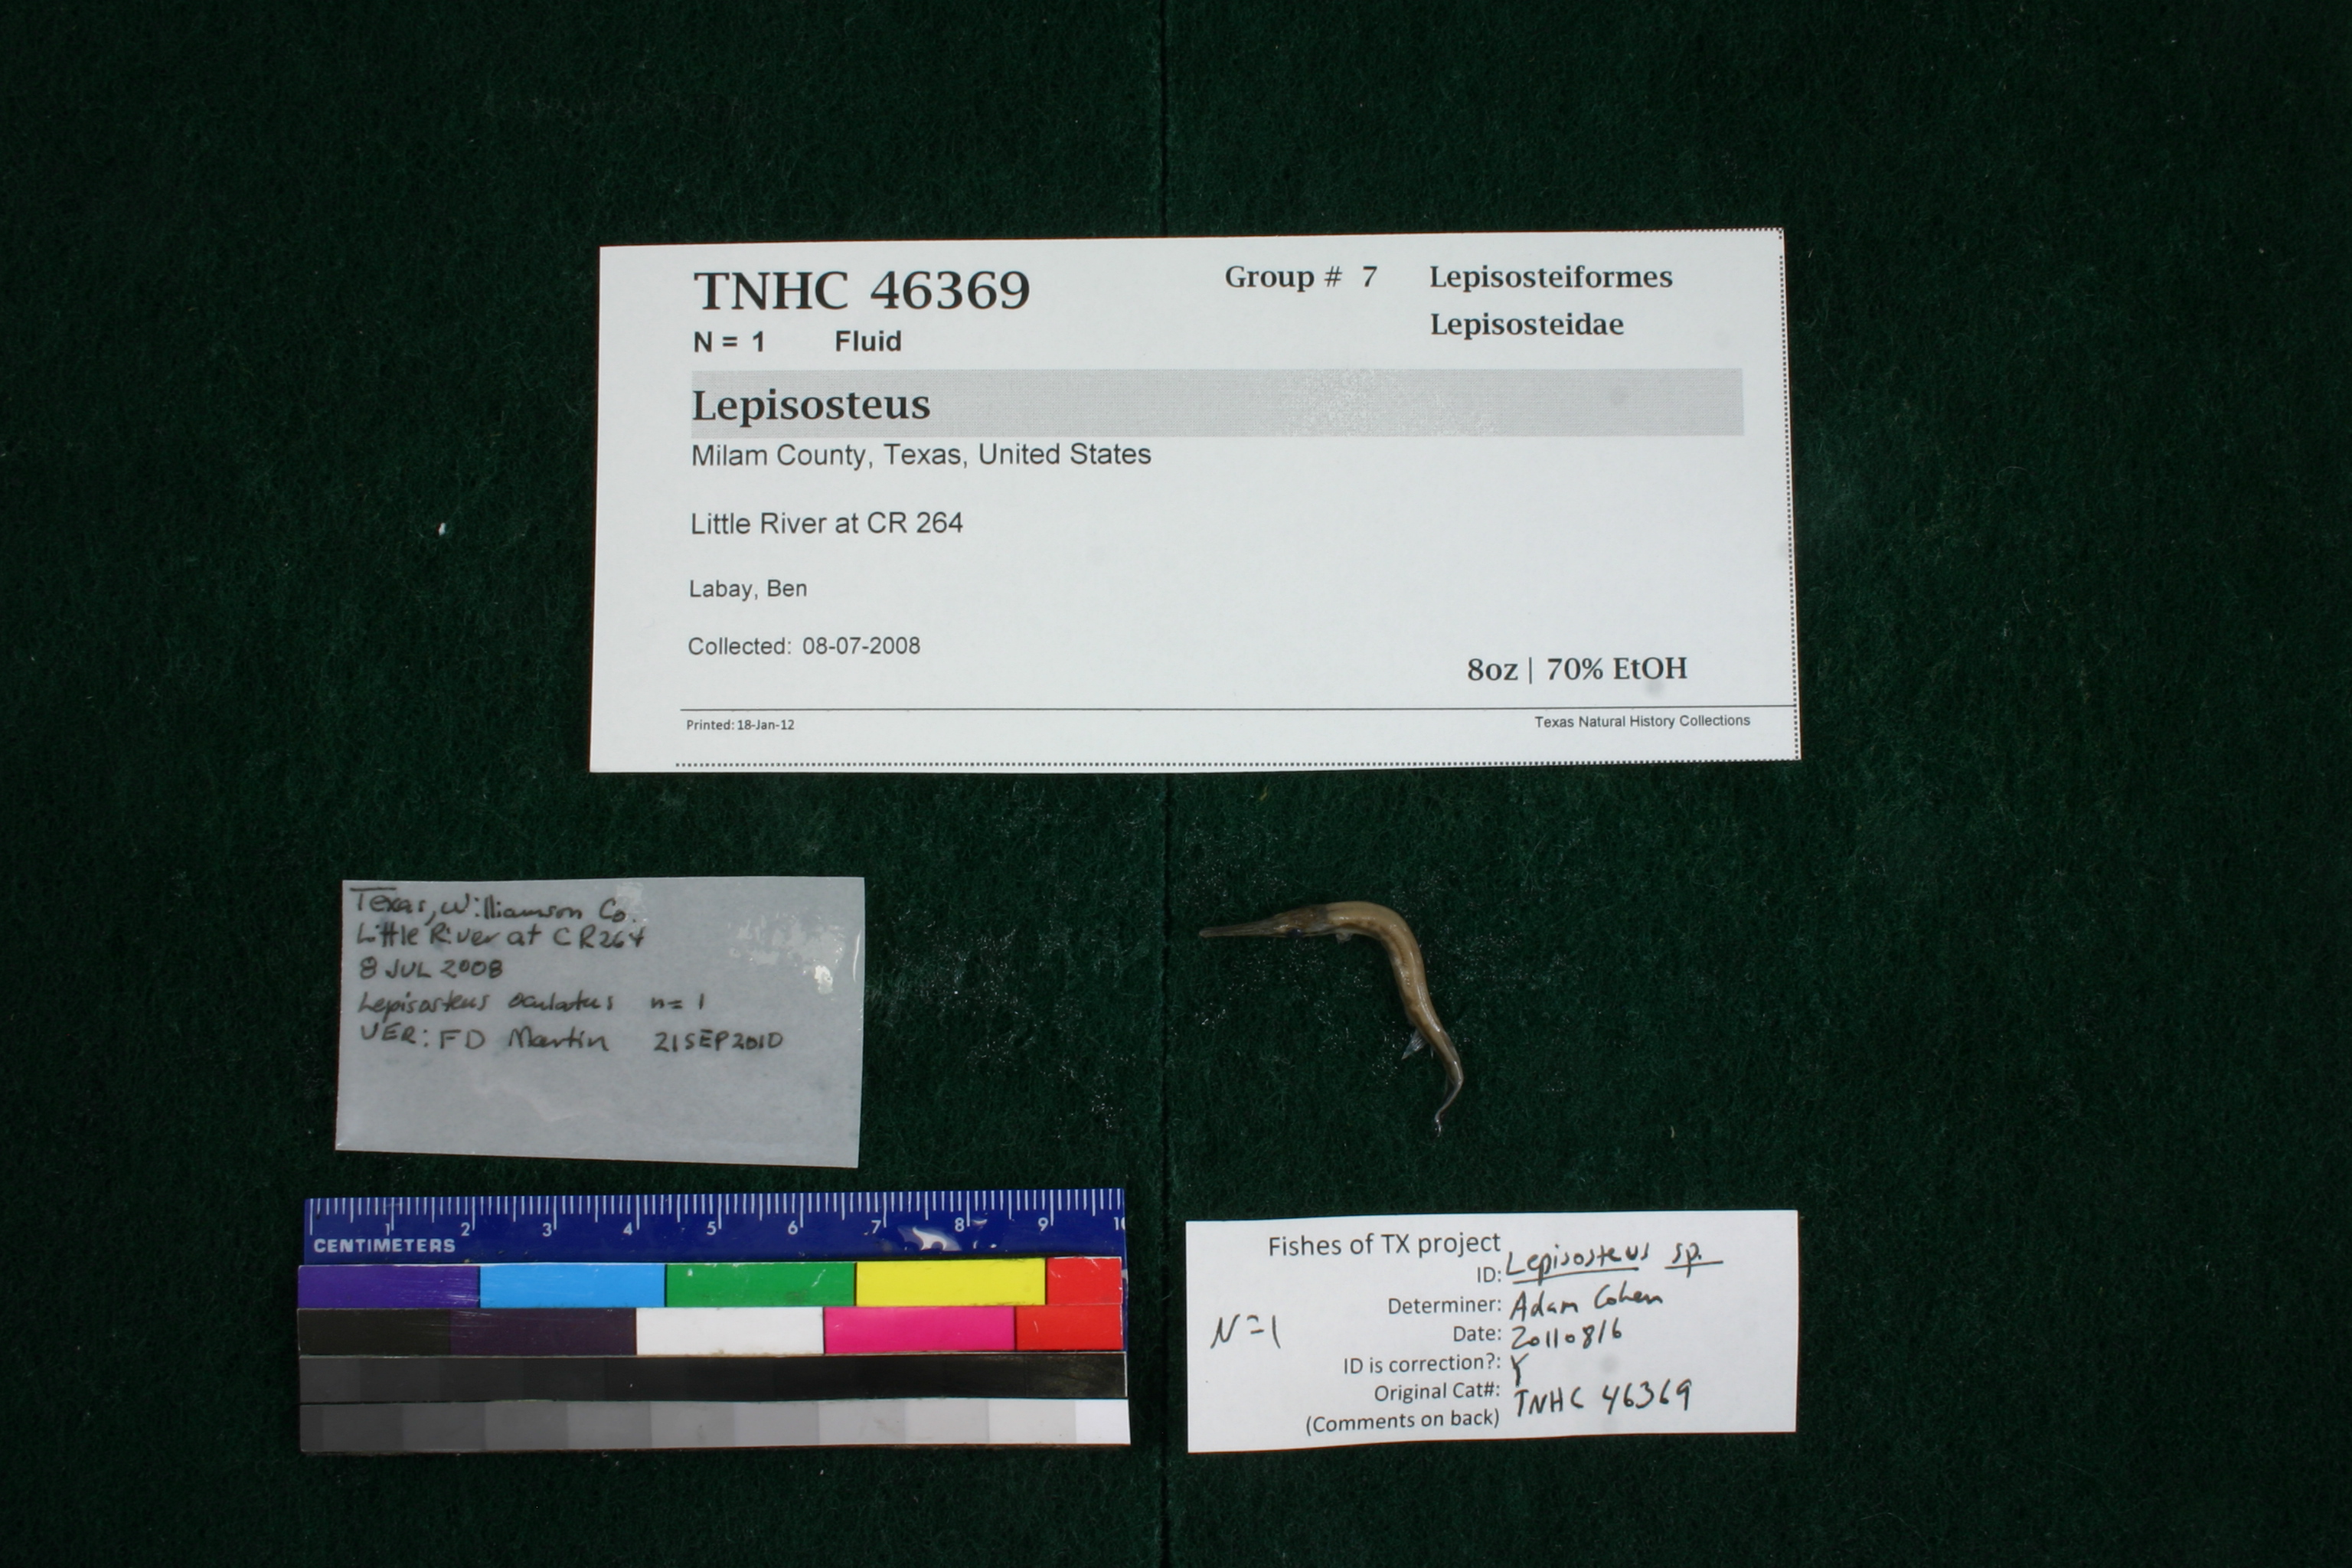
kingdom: Animalia
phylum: Chordata
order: Lepisosteiformes
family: Lepisosteidae
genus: Lepisosteus
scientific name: Lepisosteus
